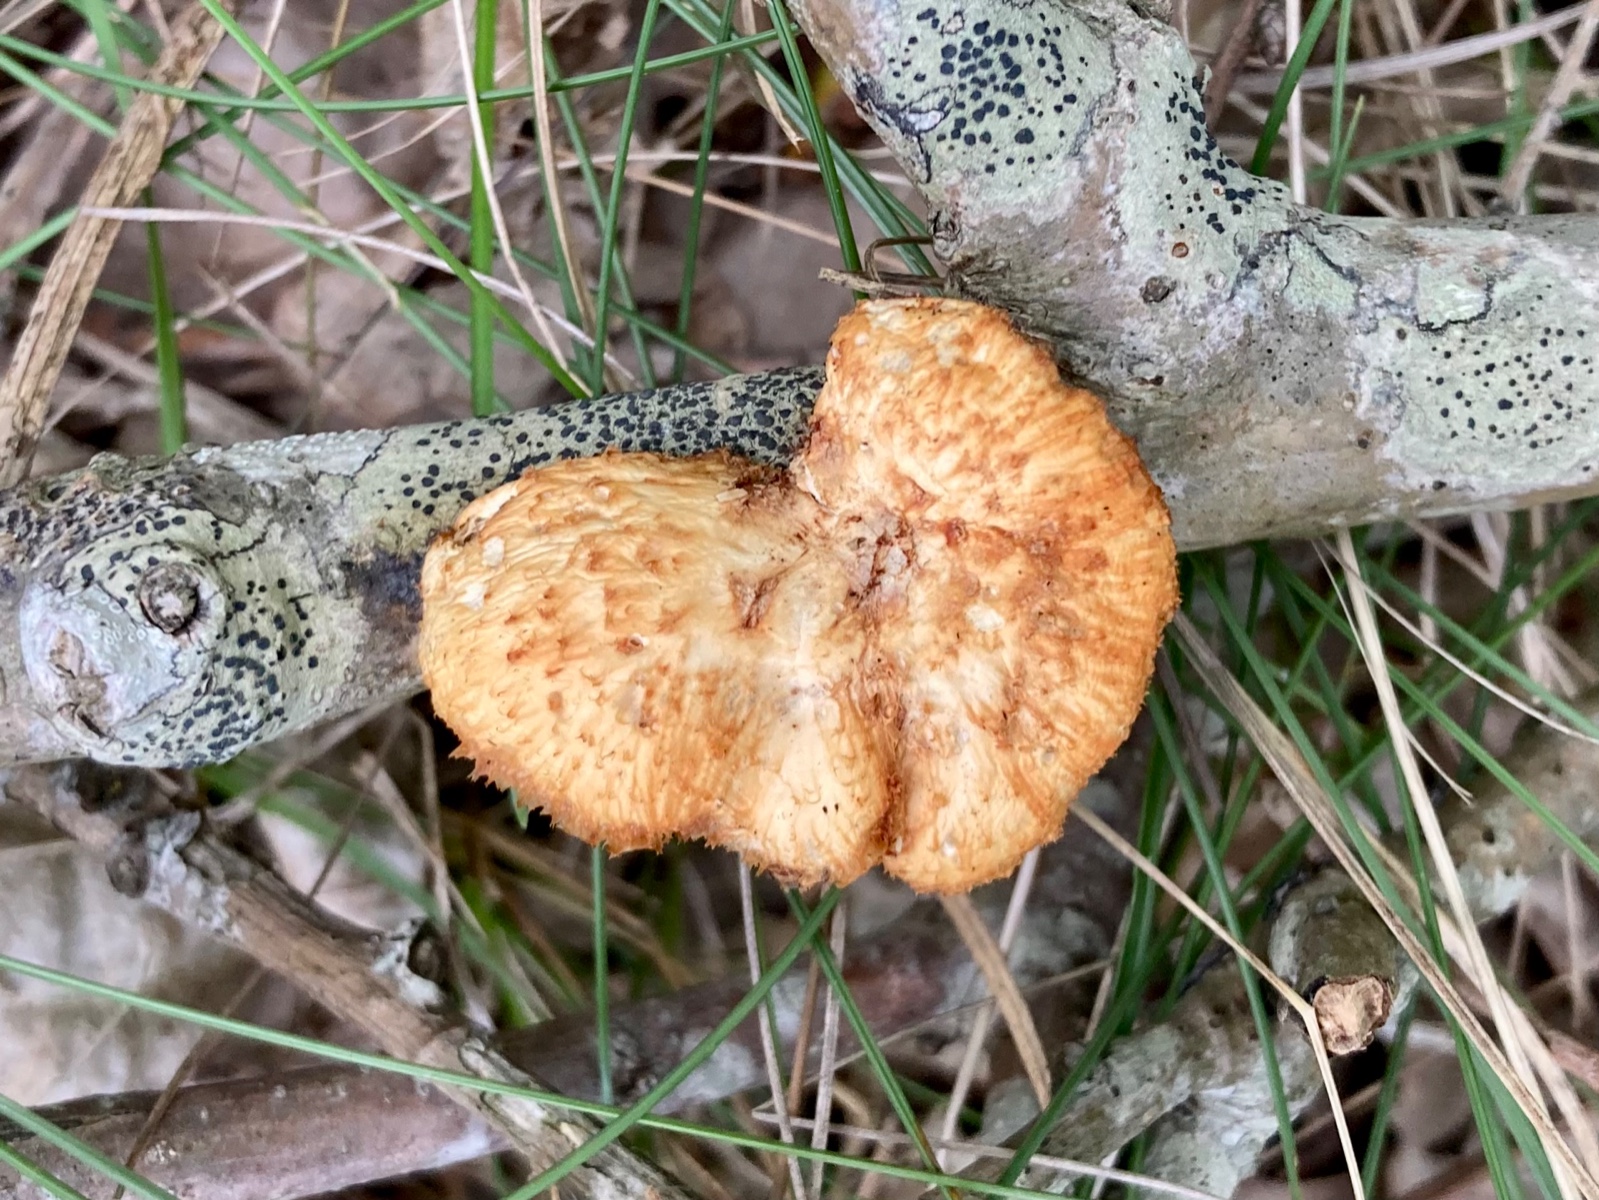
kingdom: Fungi
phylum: Basidiomycota
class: Agaricomycetes
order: Polyporales
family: Polyporaceae
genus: Polyporus
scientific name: Polyporus tuberaster
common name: knoldet stilkporesvamp
